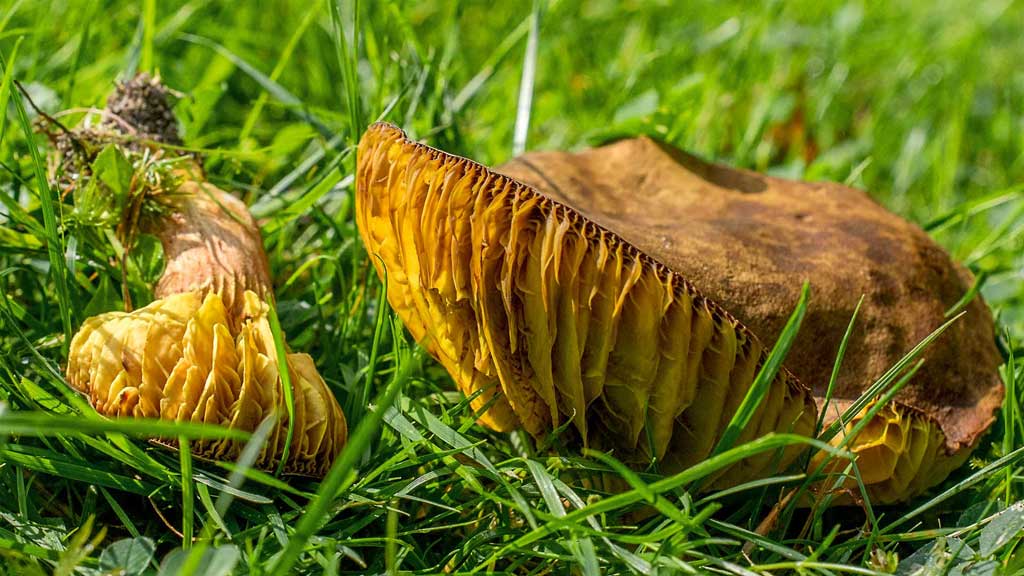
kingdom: Fungi
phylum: Basidiomycota
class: Agaricomycetes
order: Boletales
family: Boletaceae
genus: Phylloporus
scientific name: Phylloporus pelletieri
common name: lamelrørhat
